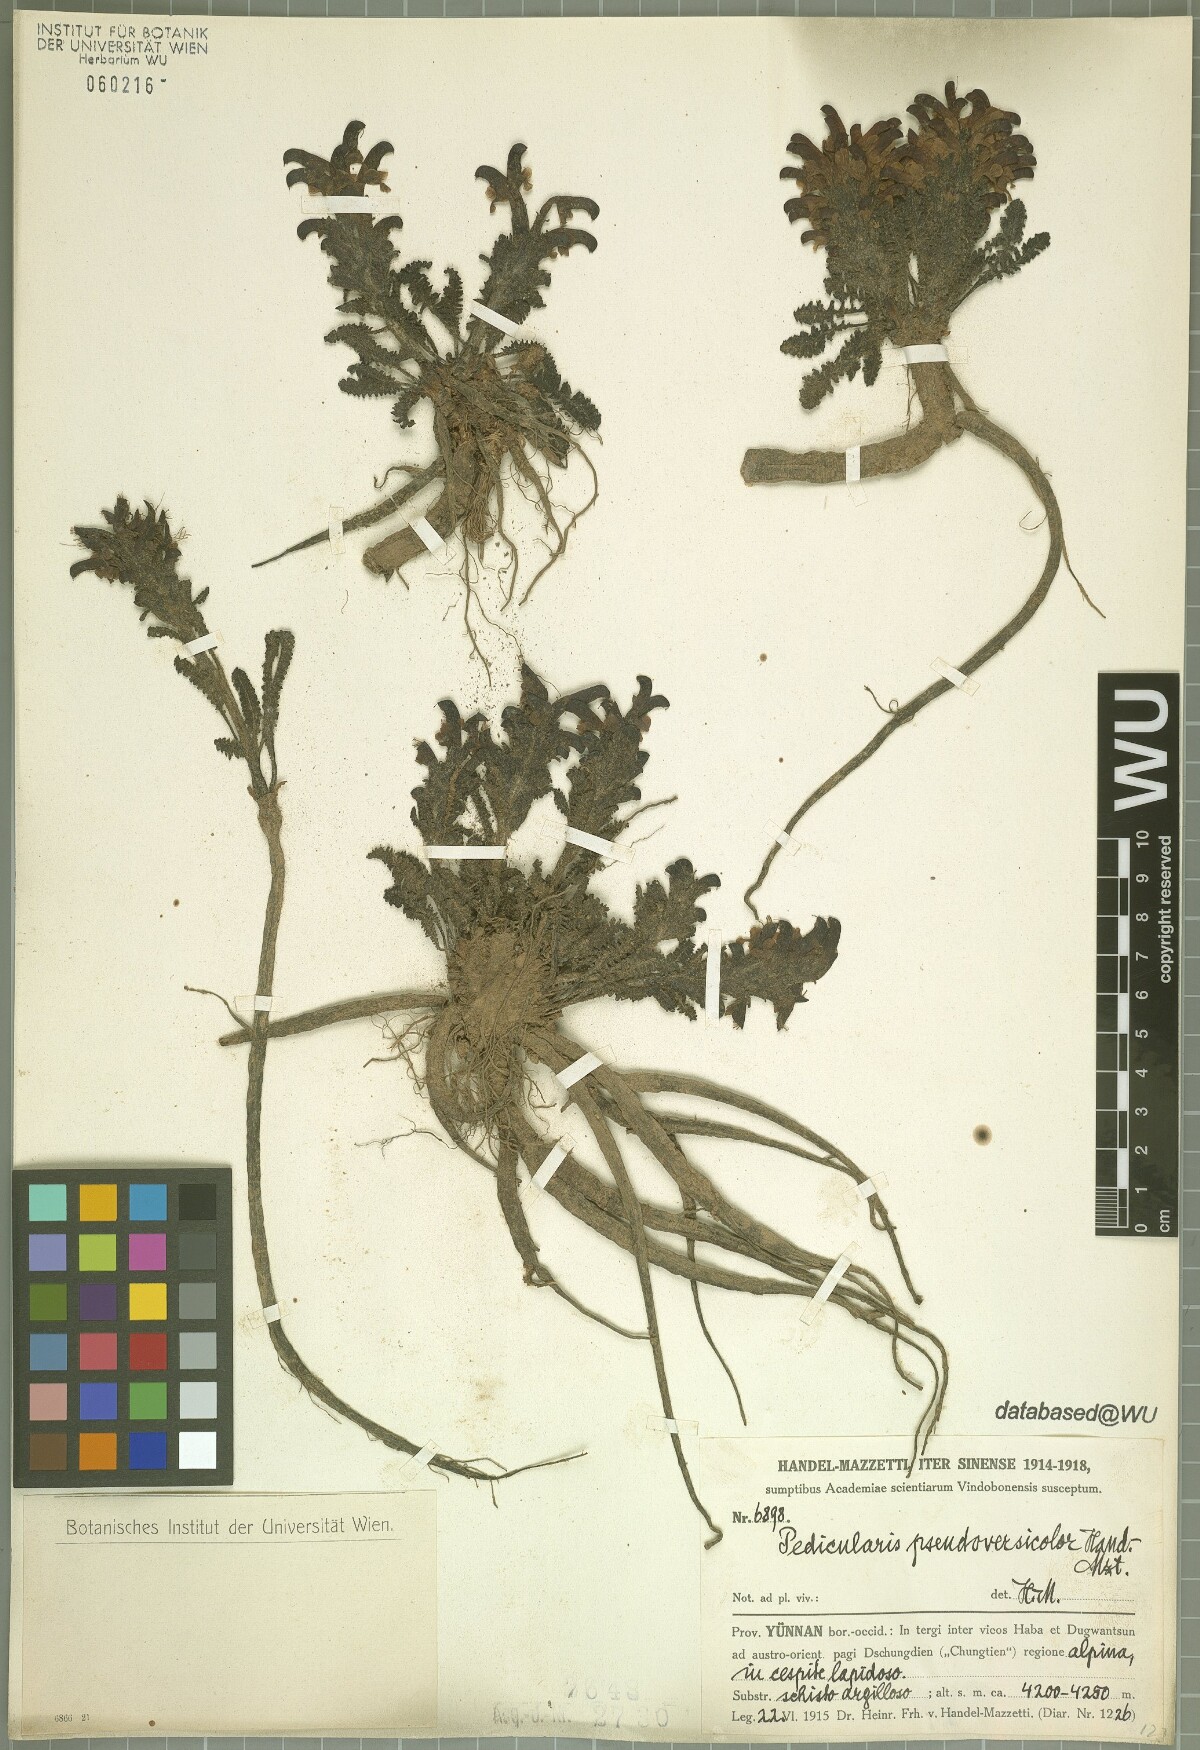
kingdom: Plantae
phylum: Tracheophyta
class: Magnoliopsida
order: Lamiales
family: Orobanchaceae
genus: Pedicularis
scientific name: Pedicularis pseudoversicolor
